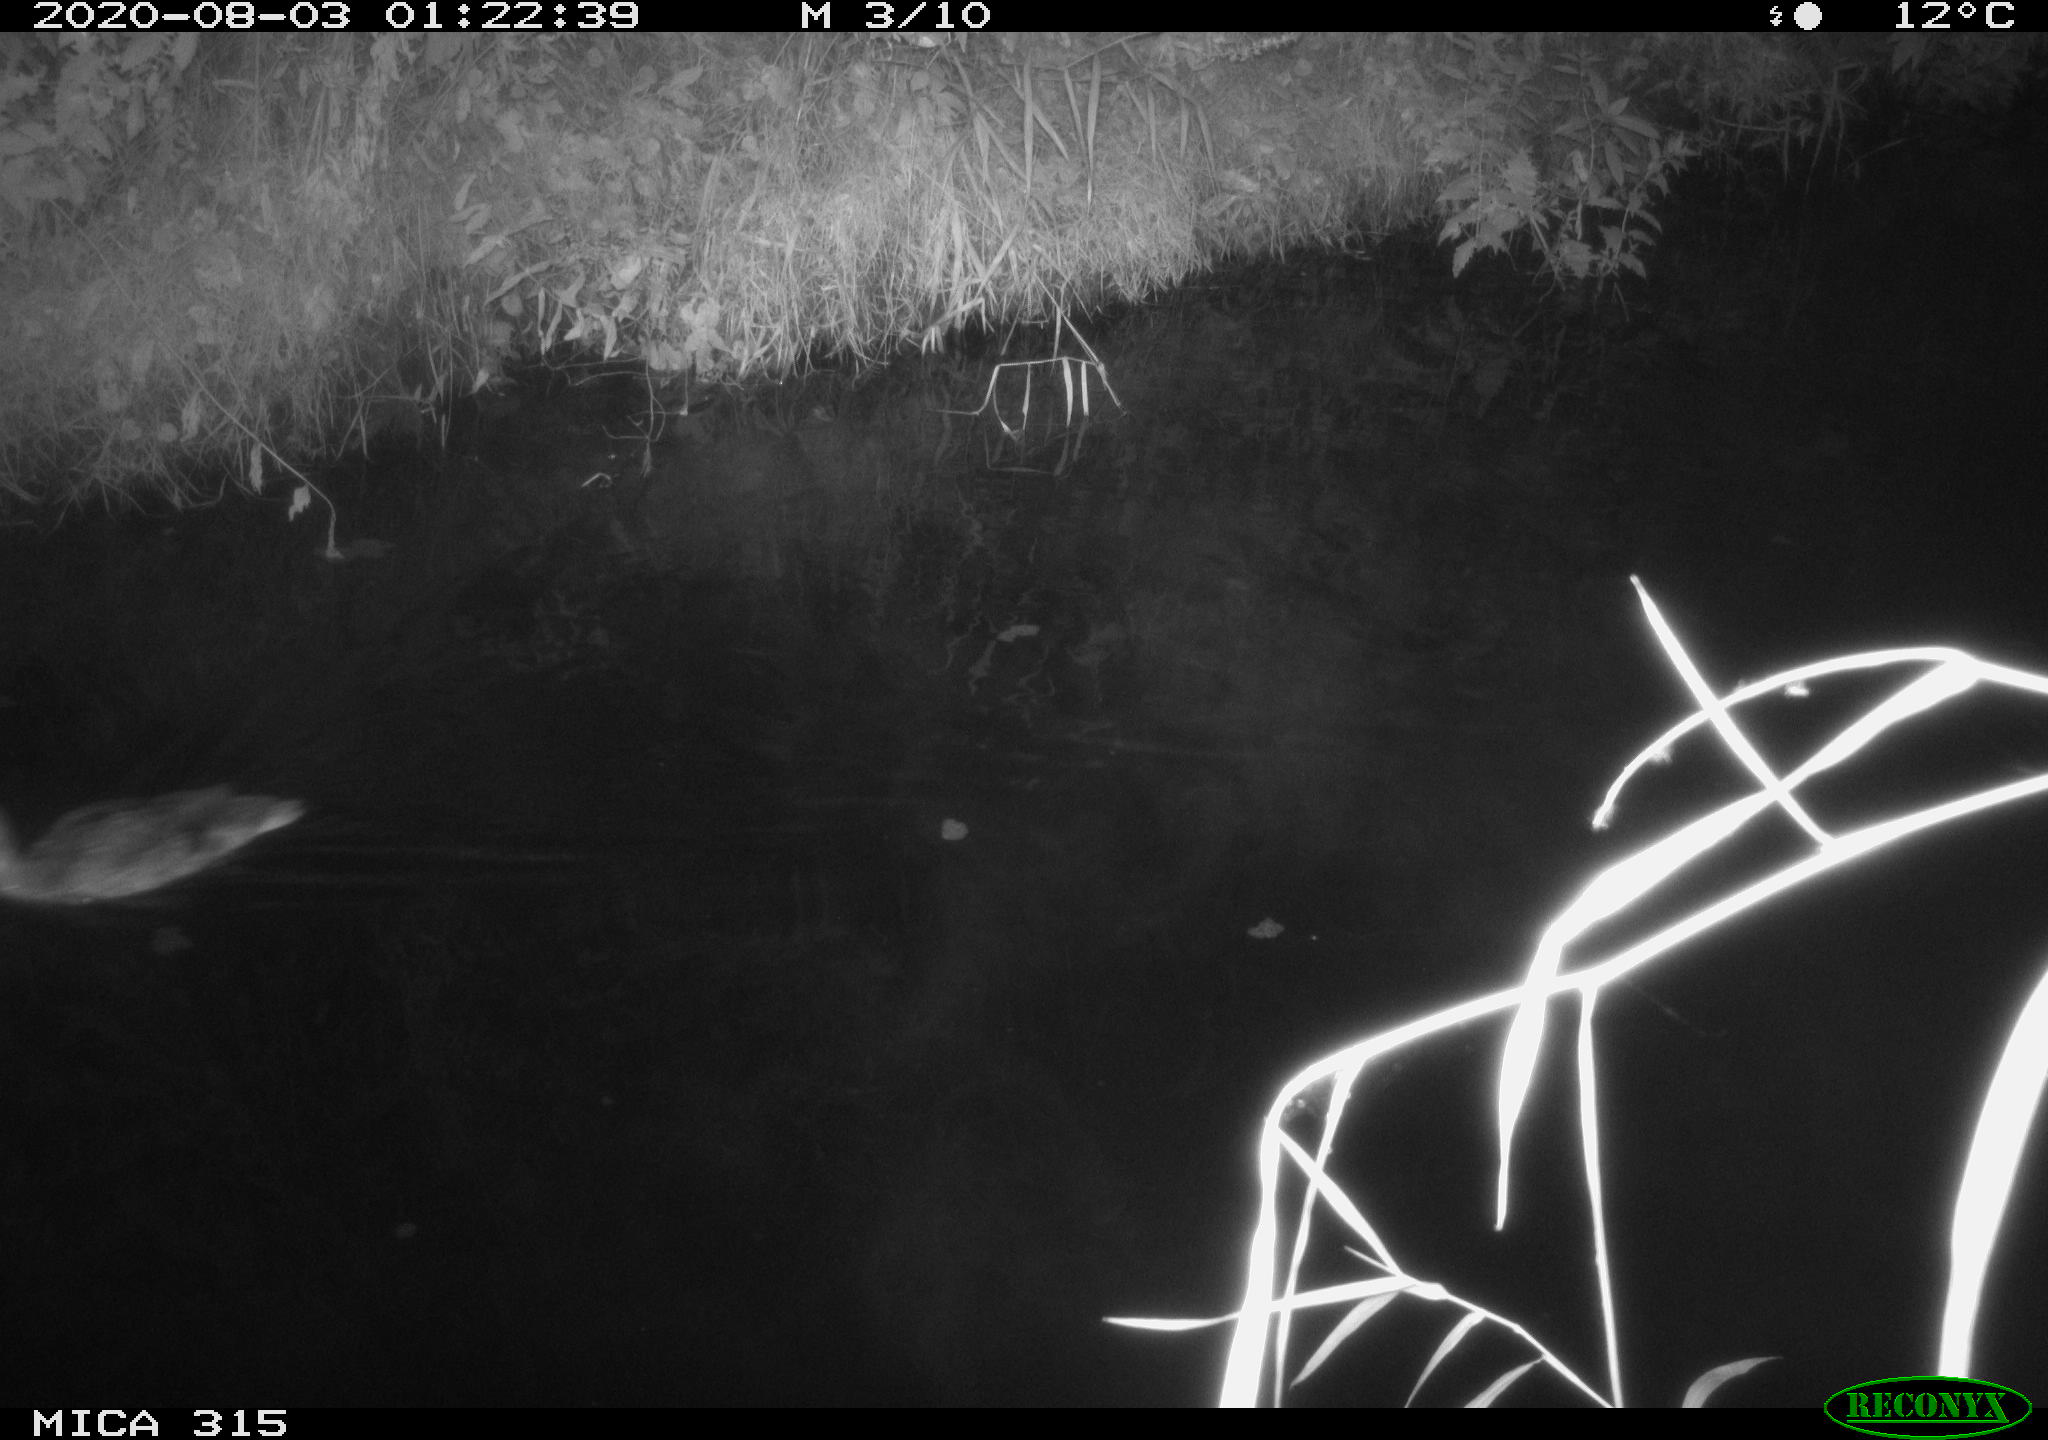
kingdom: Animalia
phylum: Chordata
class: Aves
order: Anseriformes
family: Anatidae
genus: Anas
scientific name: Anas platyrhynchos
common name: Mallard
